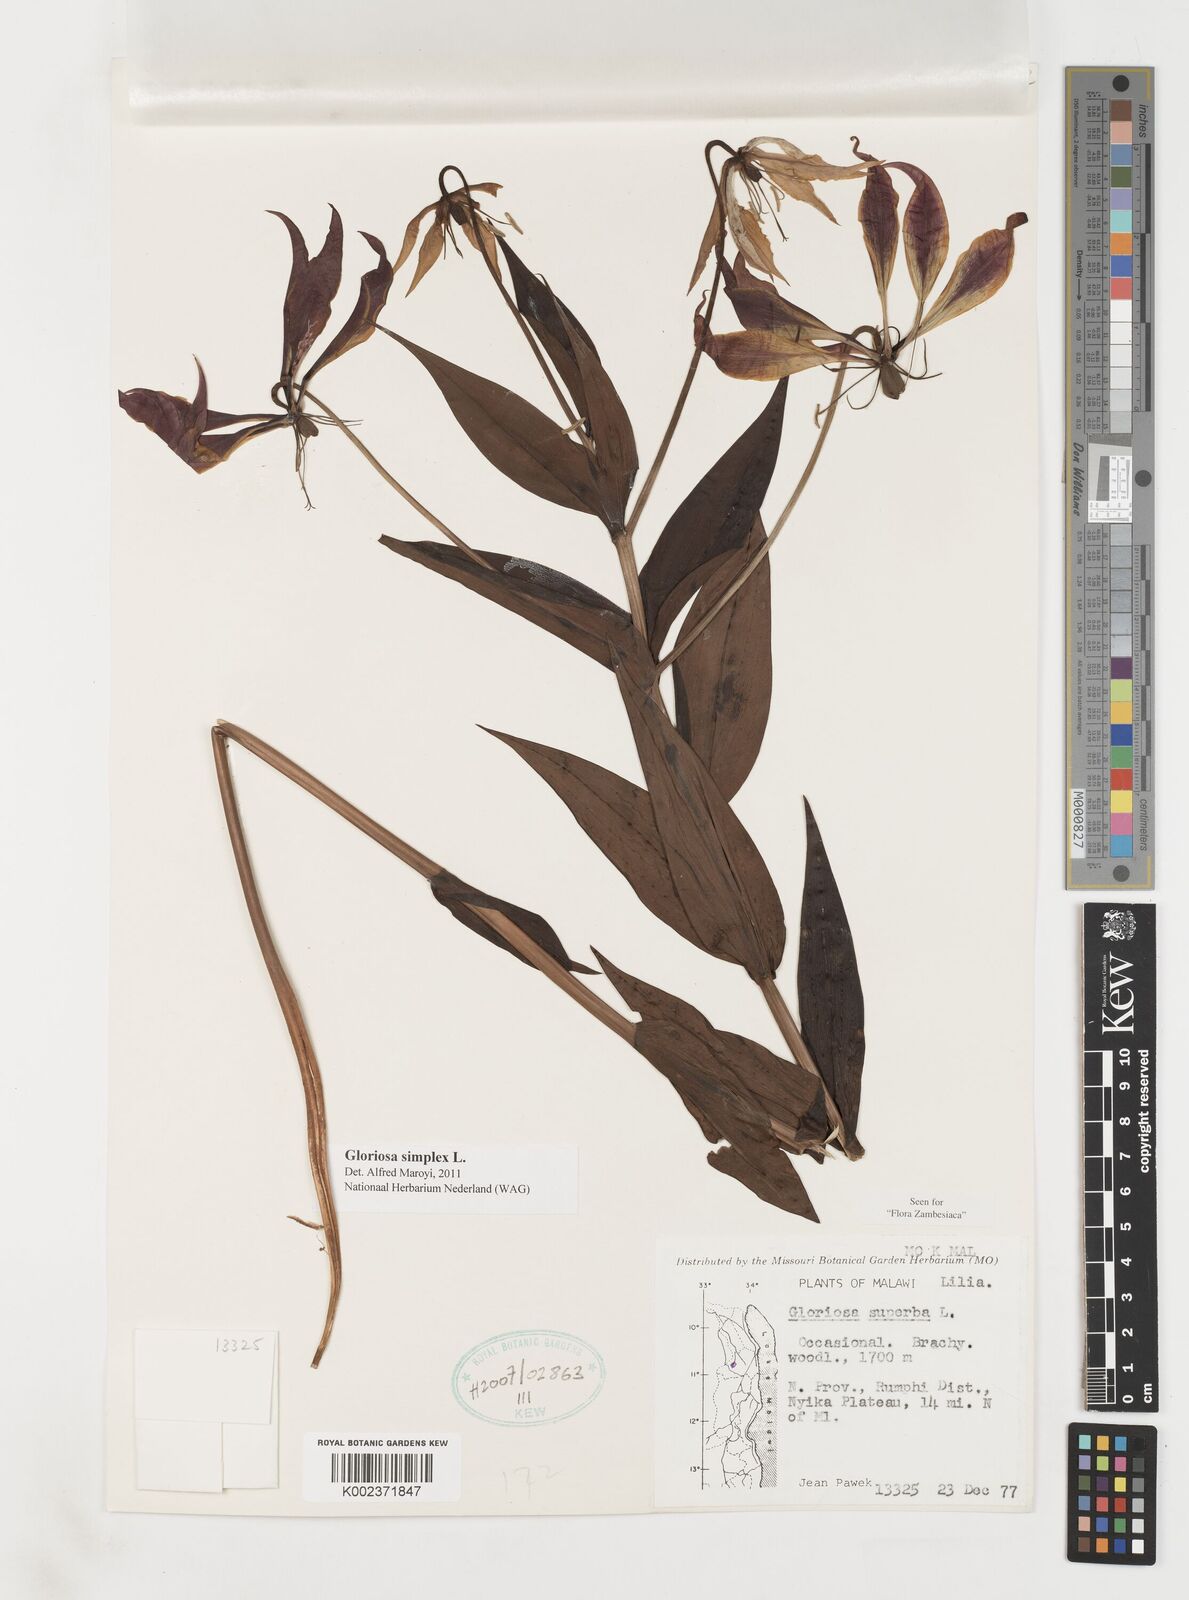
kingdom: Plantae
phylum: Tracheophyta
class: Liliopsida
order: Liliales
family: Colchicaceae
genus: Gloriosa
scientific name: Gloriosa simplex
